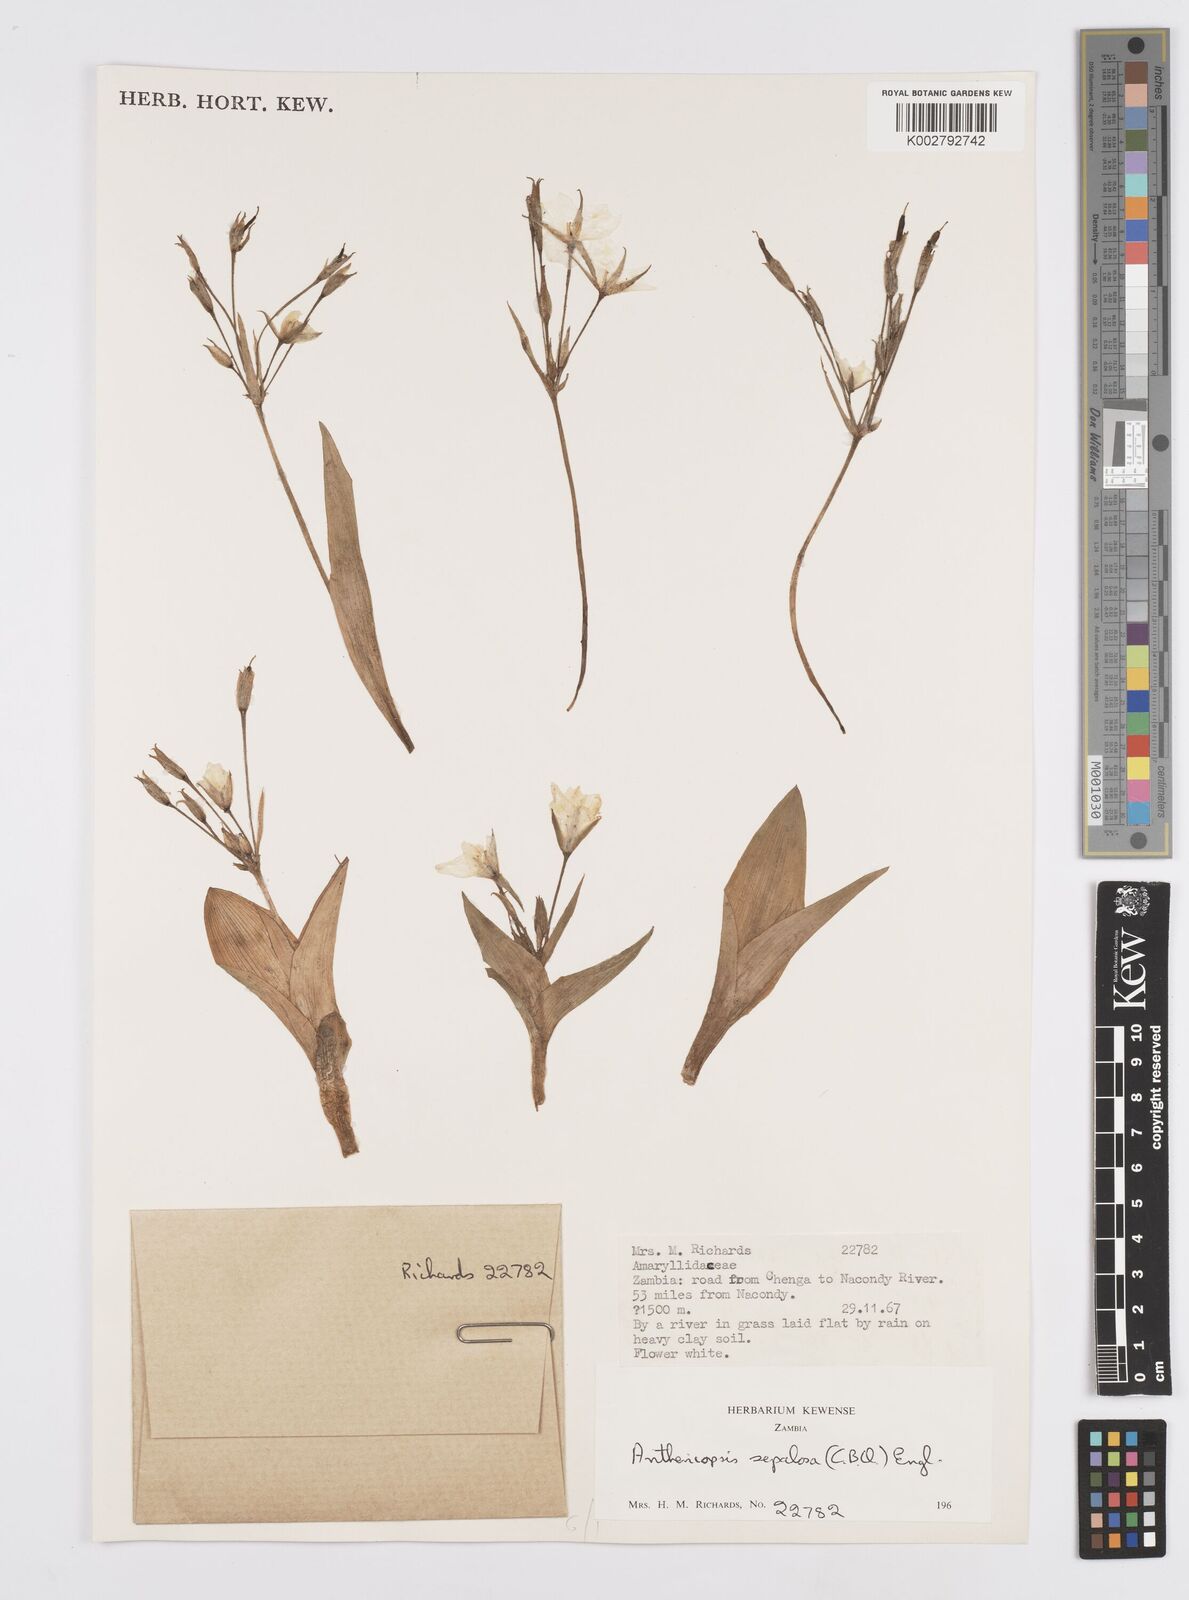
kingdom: Plantae
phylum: Tracheophyta
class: Liliopsida
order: Commelinales
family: Commelinaceae
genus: Anthericopsis
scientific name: Anthericopsis sepalosa
